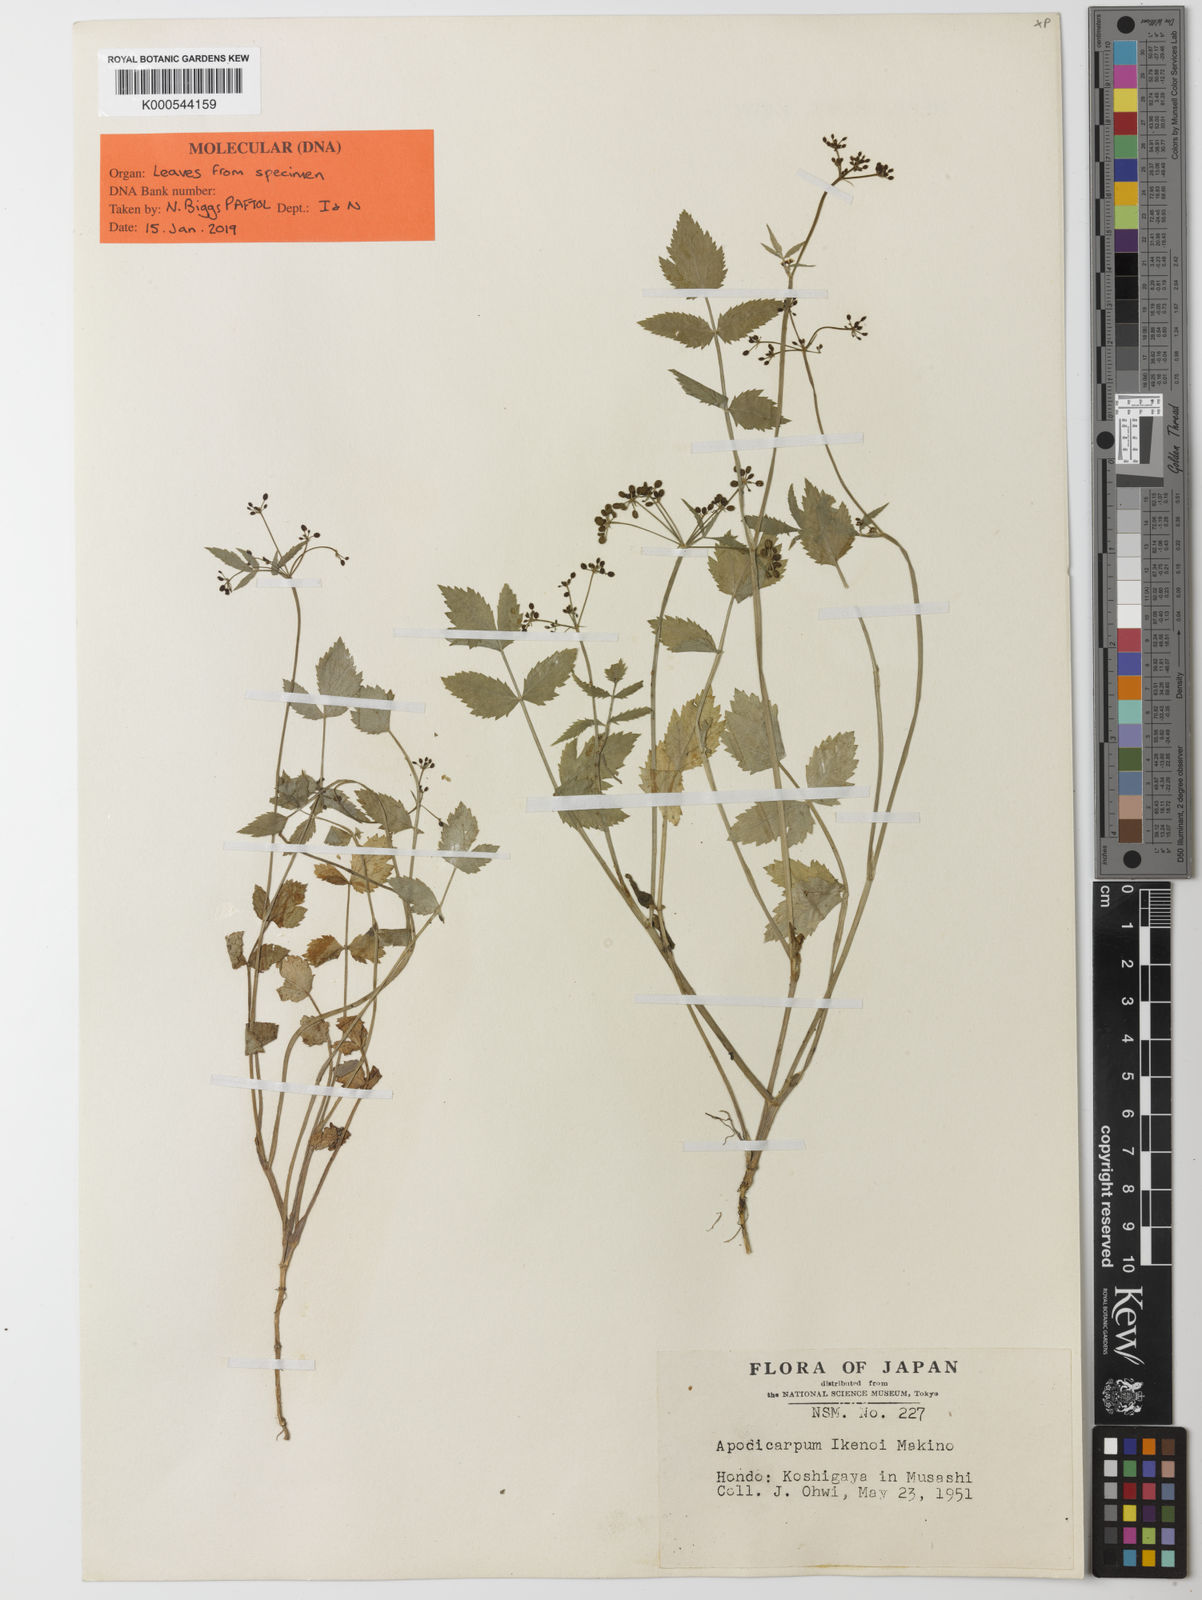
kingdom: Plantae
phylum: Tracheophyta
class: Magnoliopsida
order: Apiales
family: Apiaceae
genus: Apodicarpum
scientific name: Apodicarpum ikenoi
